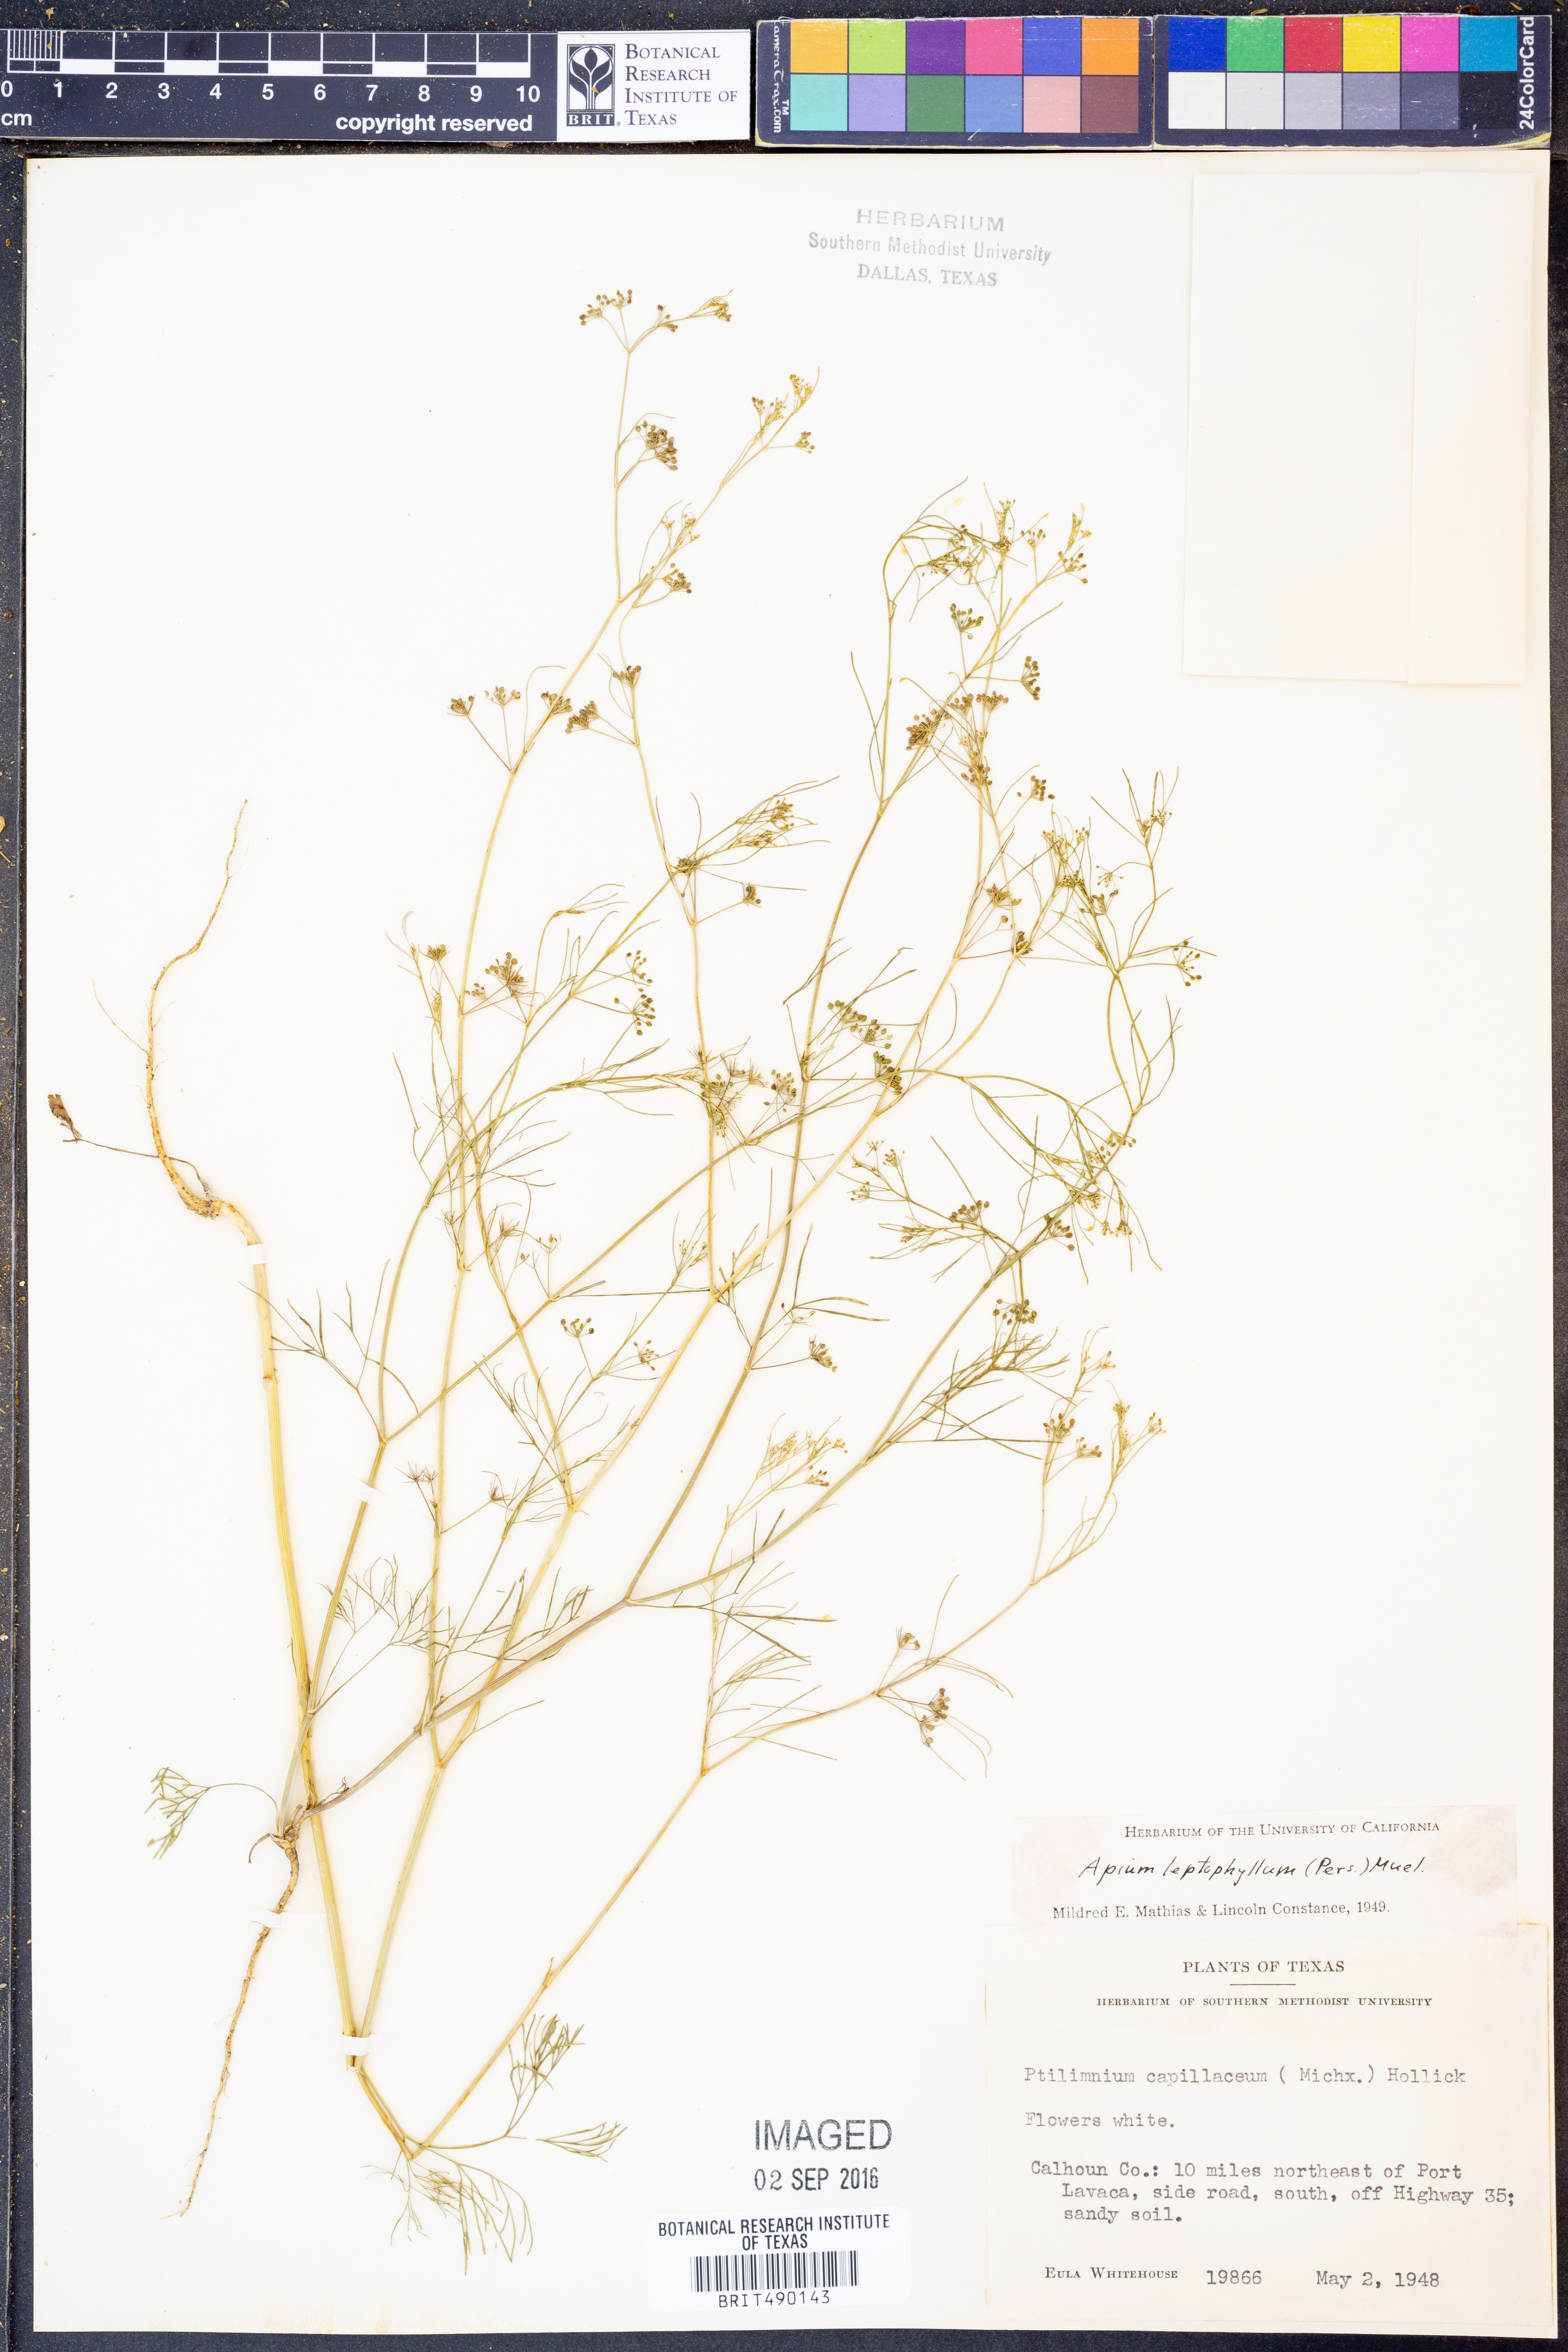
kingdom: Plantae
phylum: Tracheophyta
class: Magnoliopsida
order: Apiales
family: Apiaceae
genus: Cyclospermum
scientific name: Cyclospermum leptophyllum
